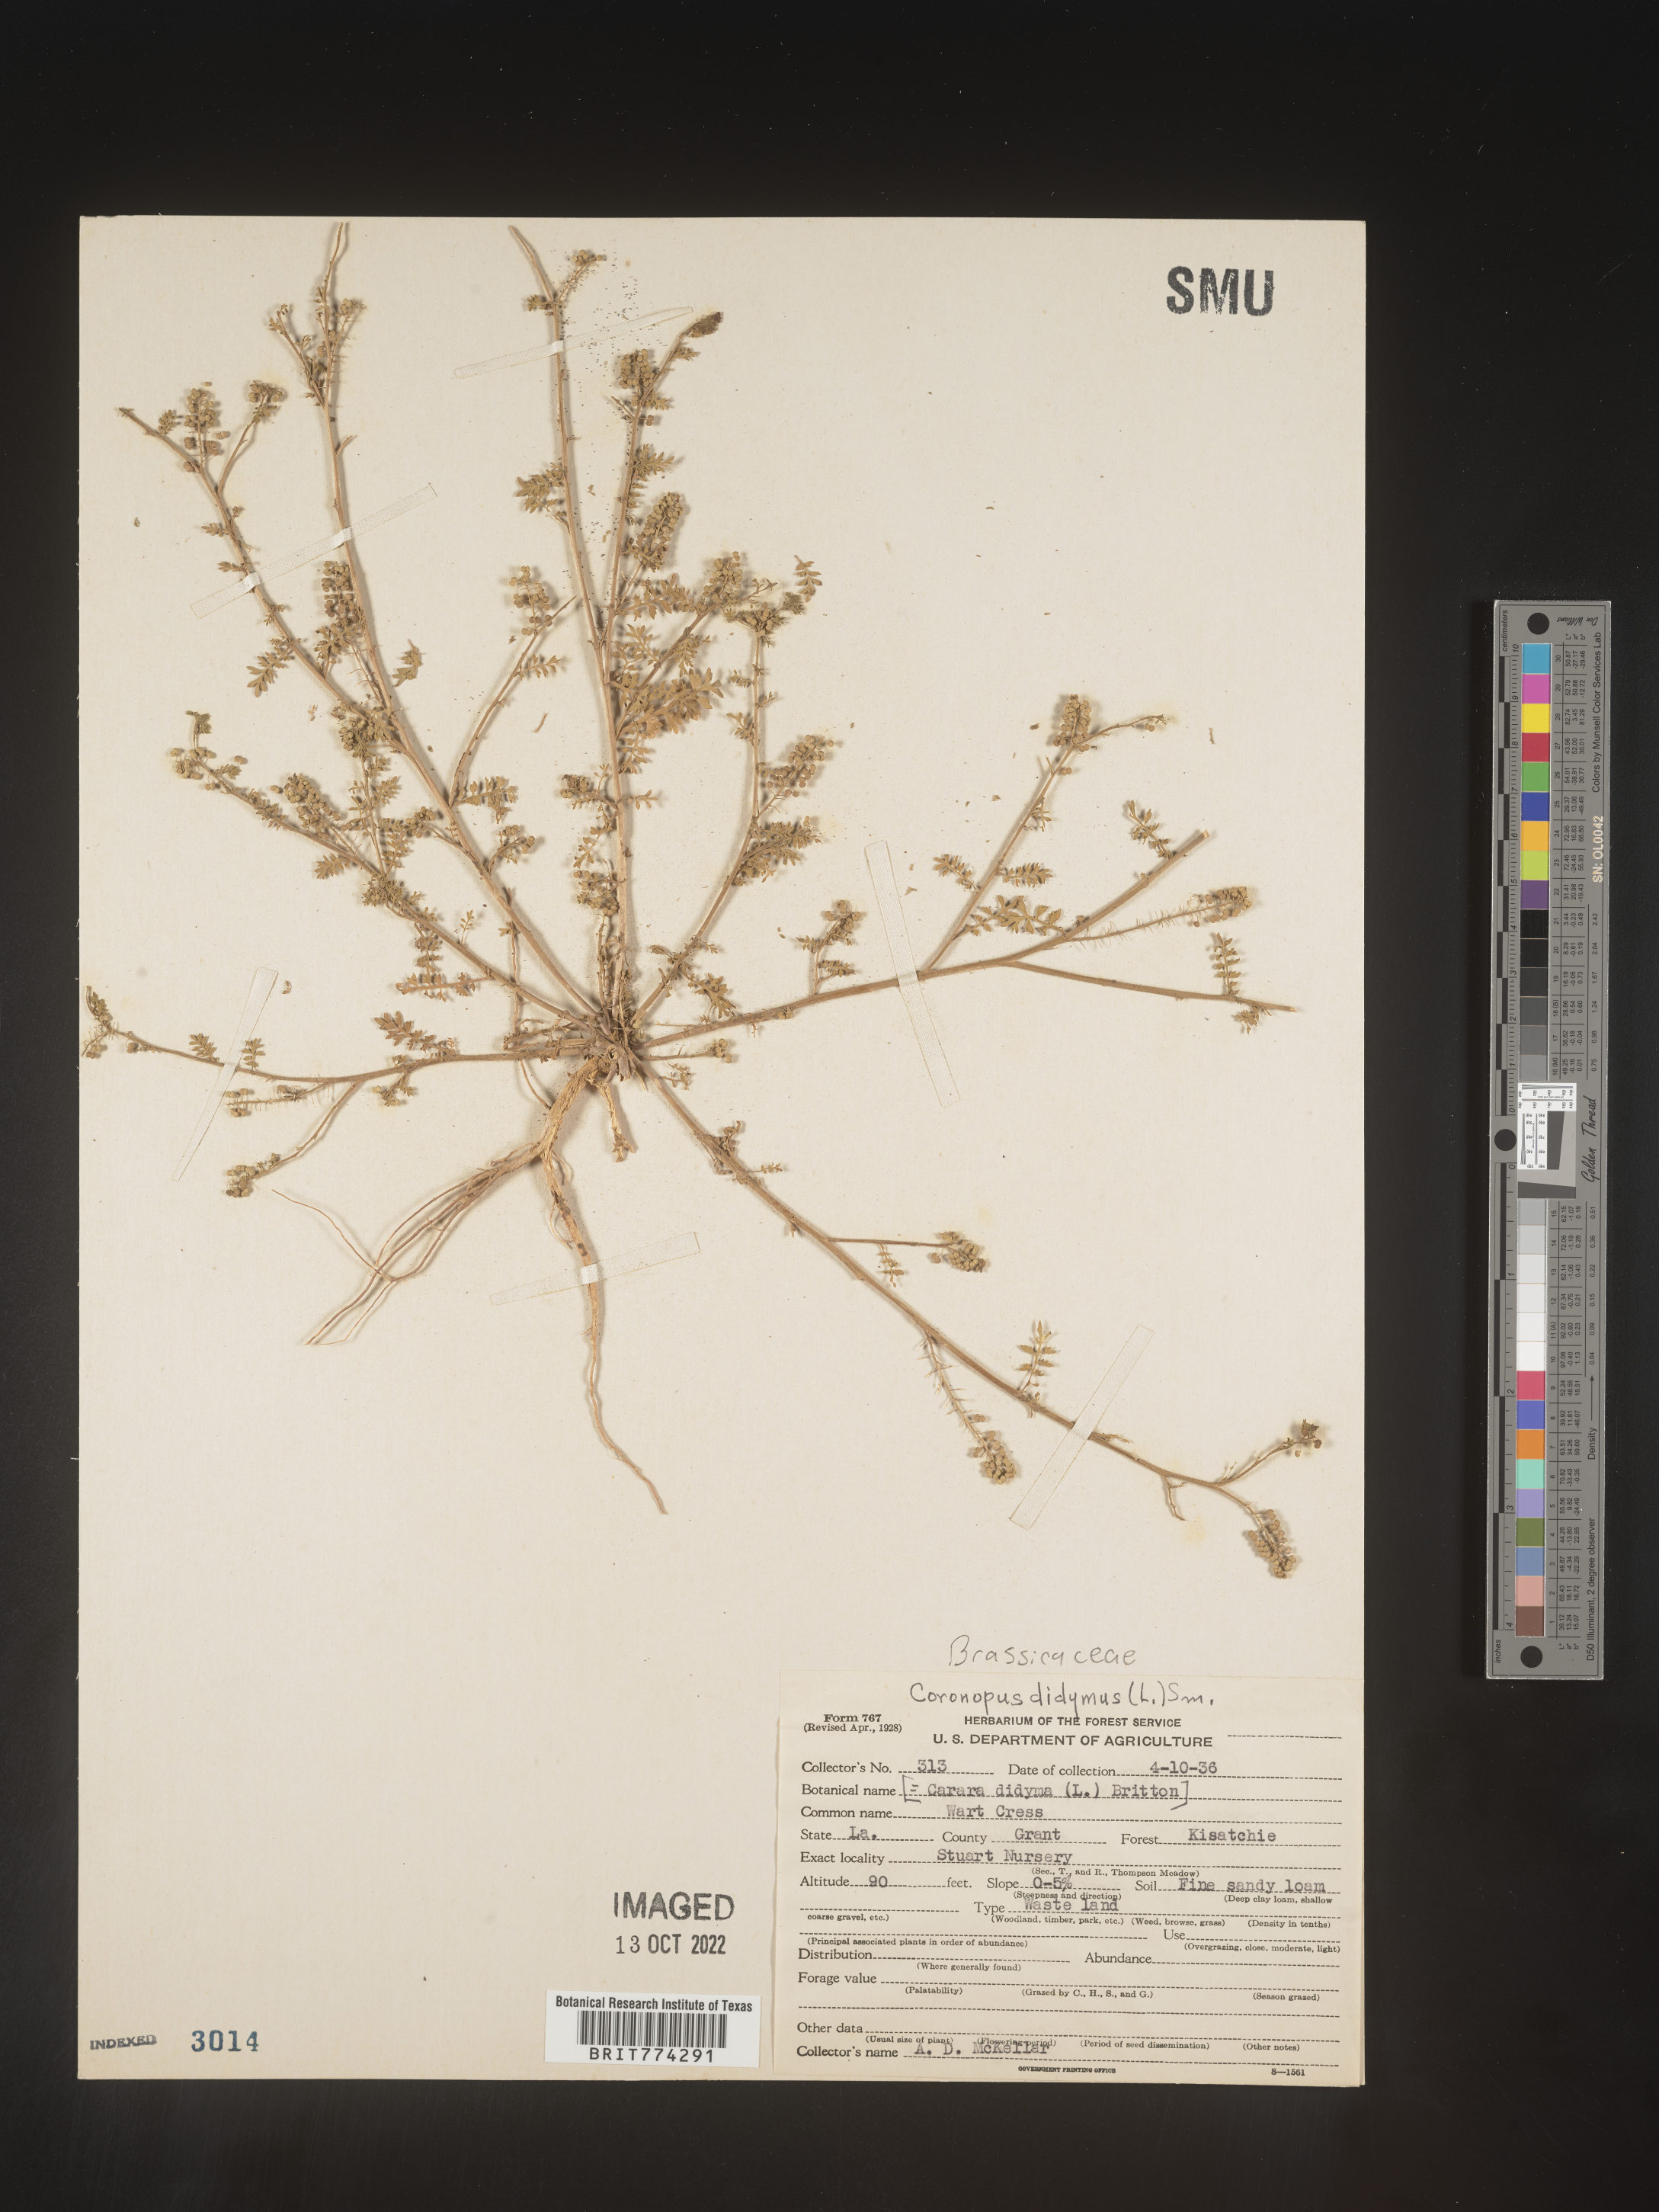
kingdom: Plantae
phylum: Tracheophyta
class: Magnoliopsida
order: Brassicales
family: Brassicaceae
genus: Coronopus
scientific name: Coronopus
